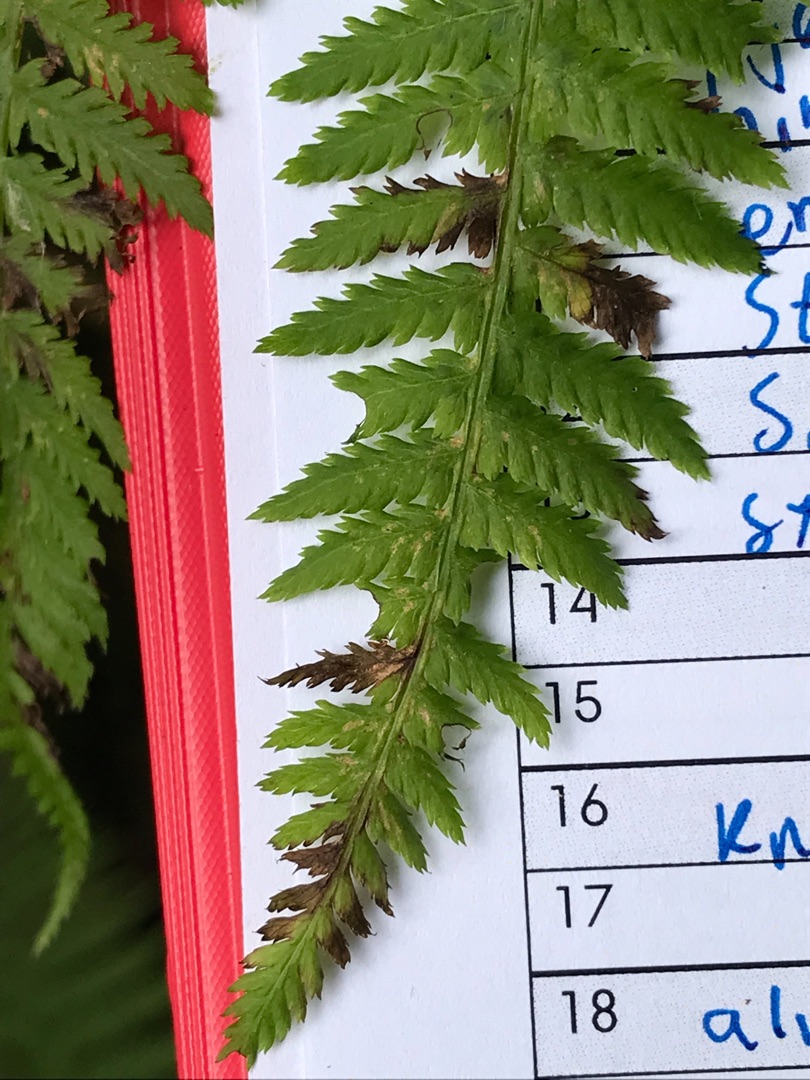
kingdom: Plantae
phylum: Tracheophyta
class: Polypodiopsida
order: Polypodiales
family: Athyriaceae
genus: Athyrium
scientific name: Athyrium filix-femina
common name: Fjerbregne
